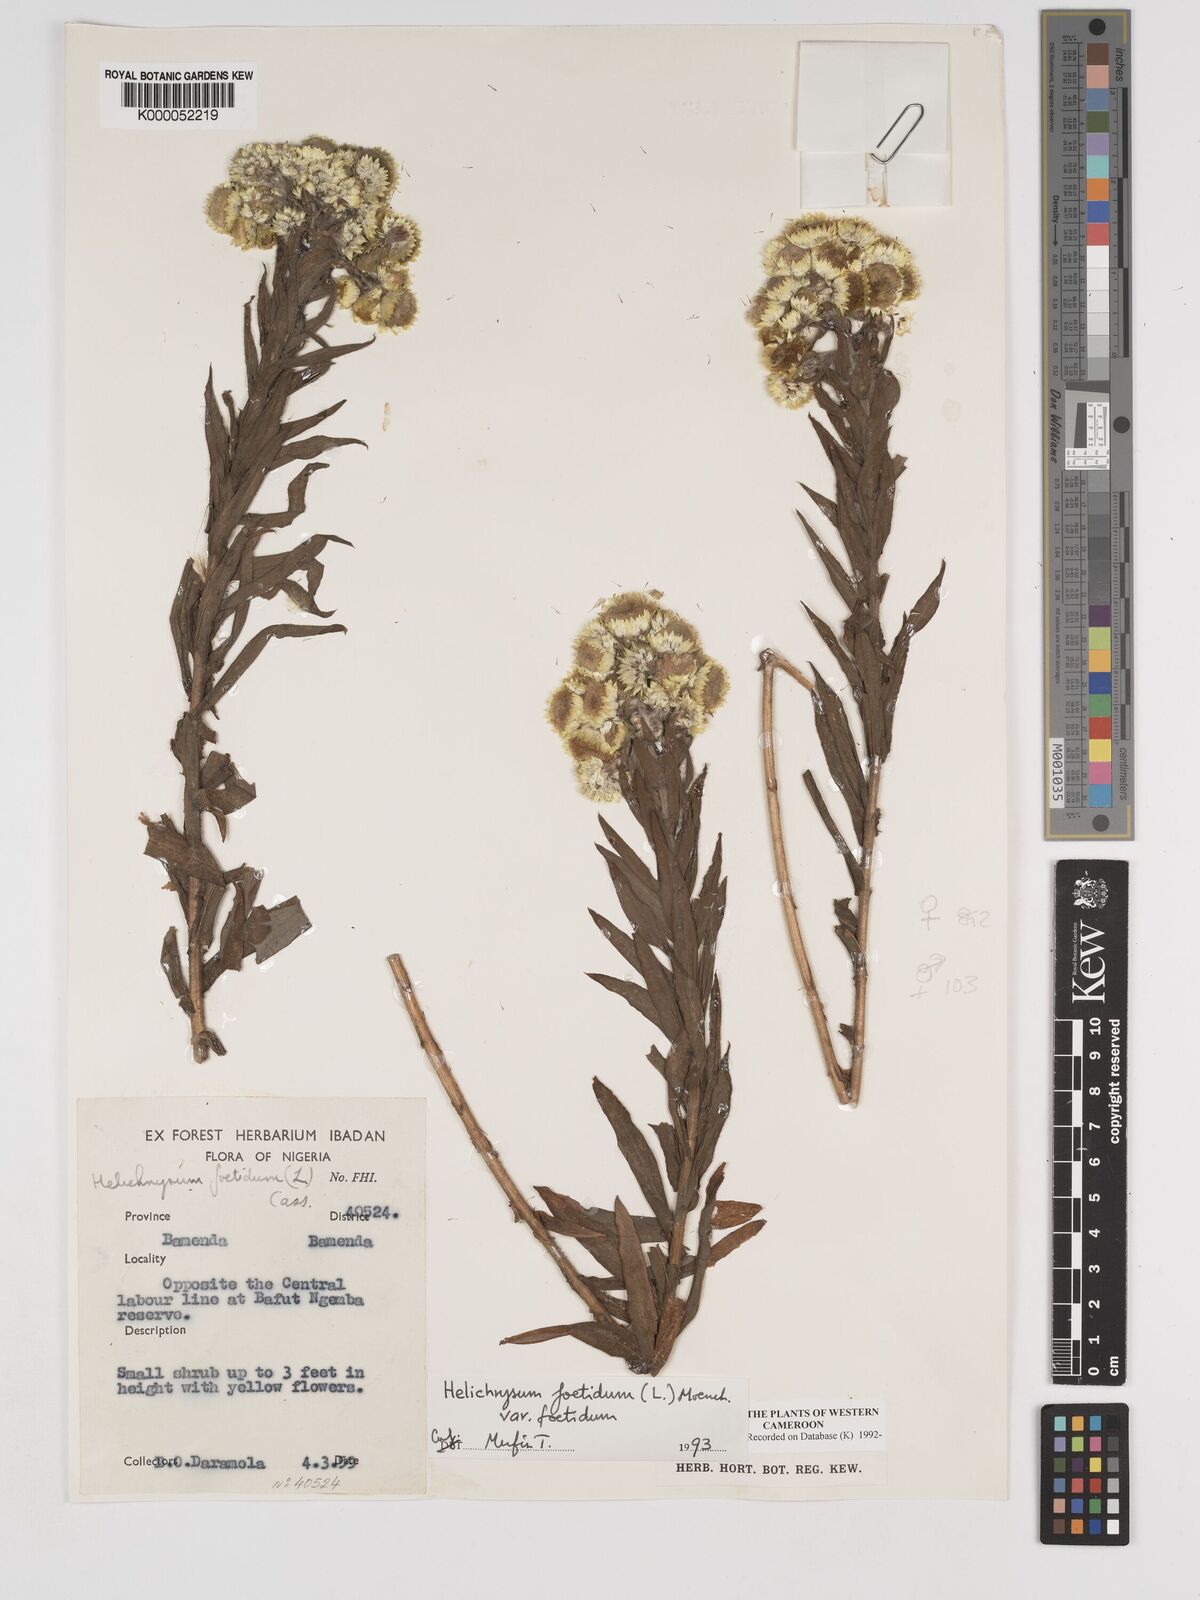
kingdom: Plantae
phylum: Tracheophyta
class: Magnoliopsida
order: Asterales
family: Asteraceae
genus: Helichrysum
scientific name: Helichrysum foetidum
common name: Stinking everlasting
